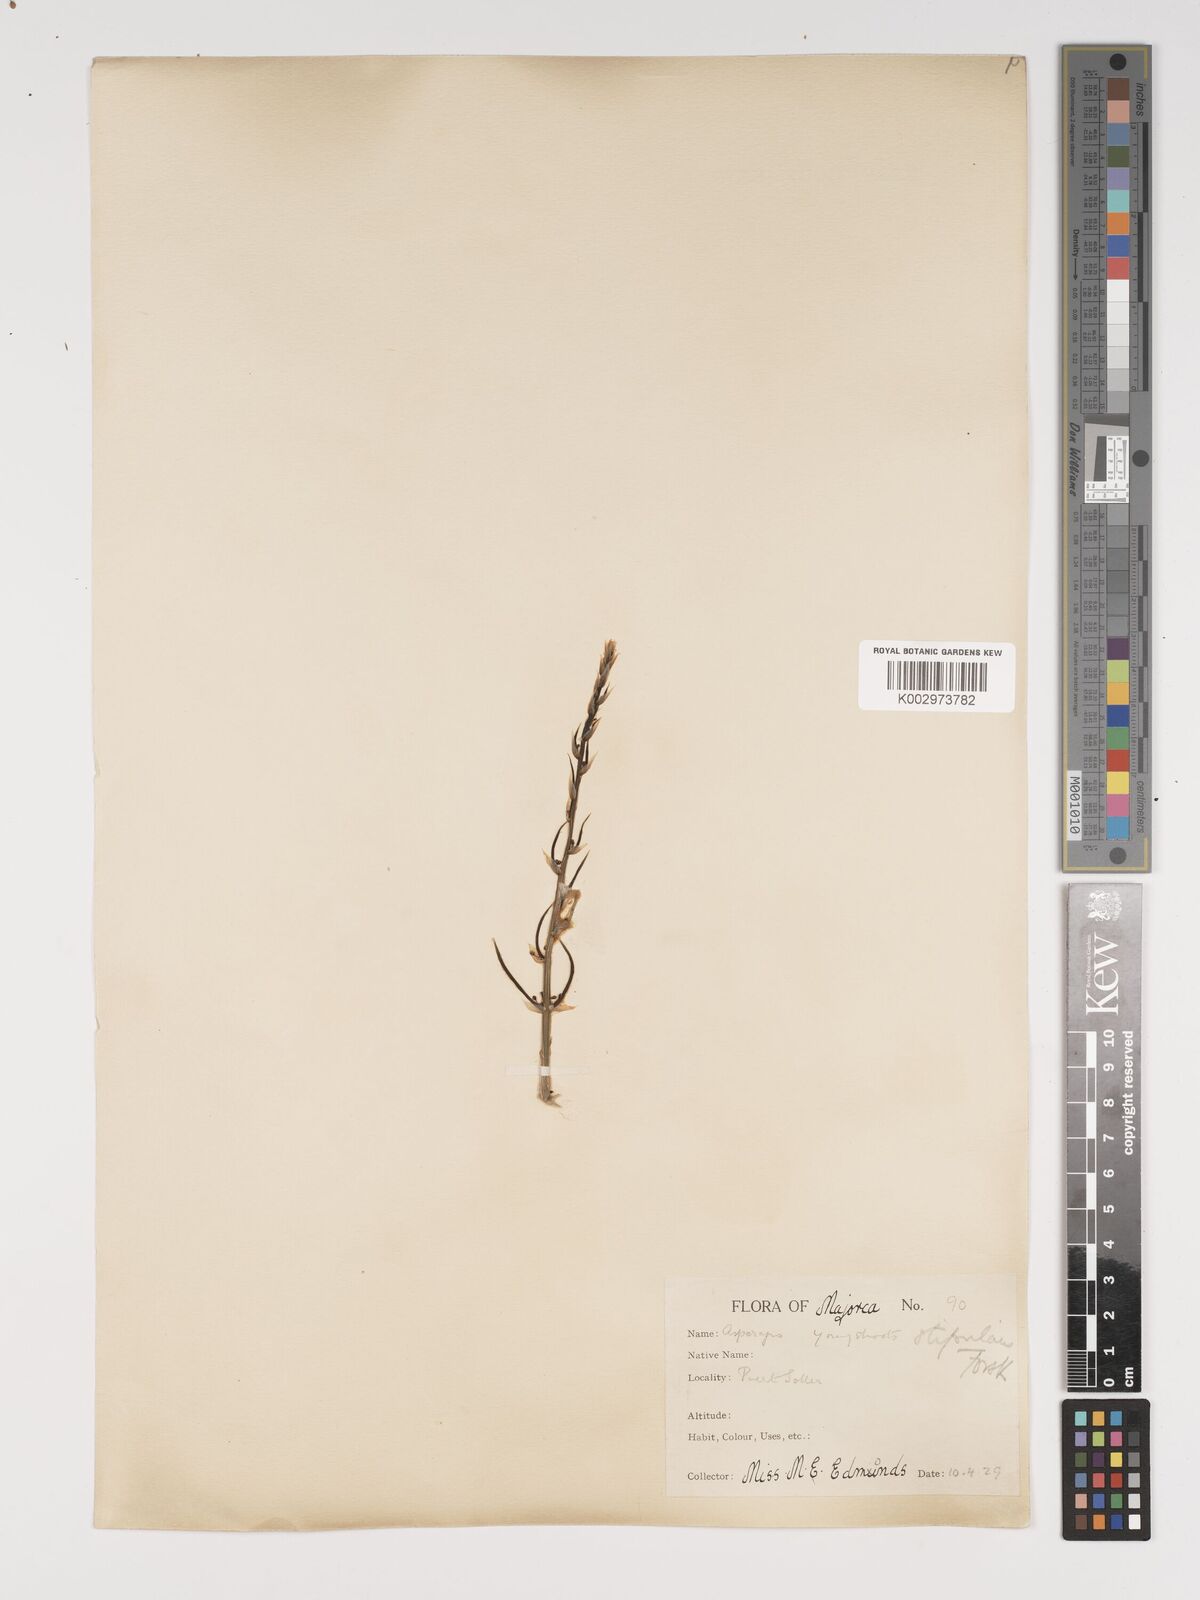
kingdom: Plantae
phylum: Tracheophyta
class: Liliopsida
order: Asparagales
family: Asparagaceae
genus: Asparagus
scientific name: Asparagus horridus
